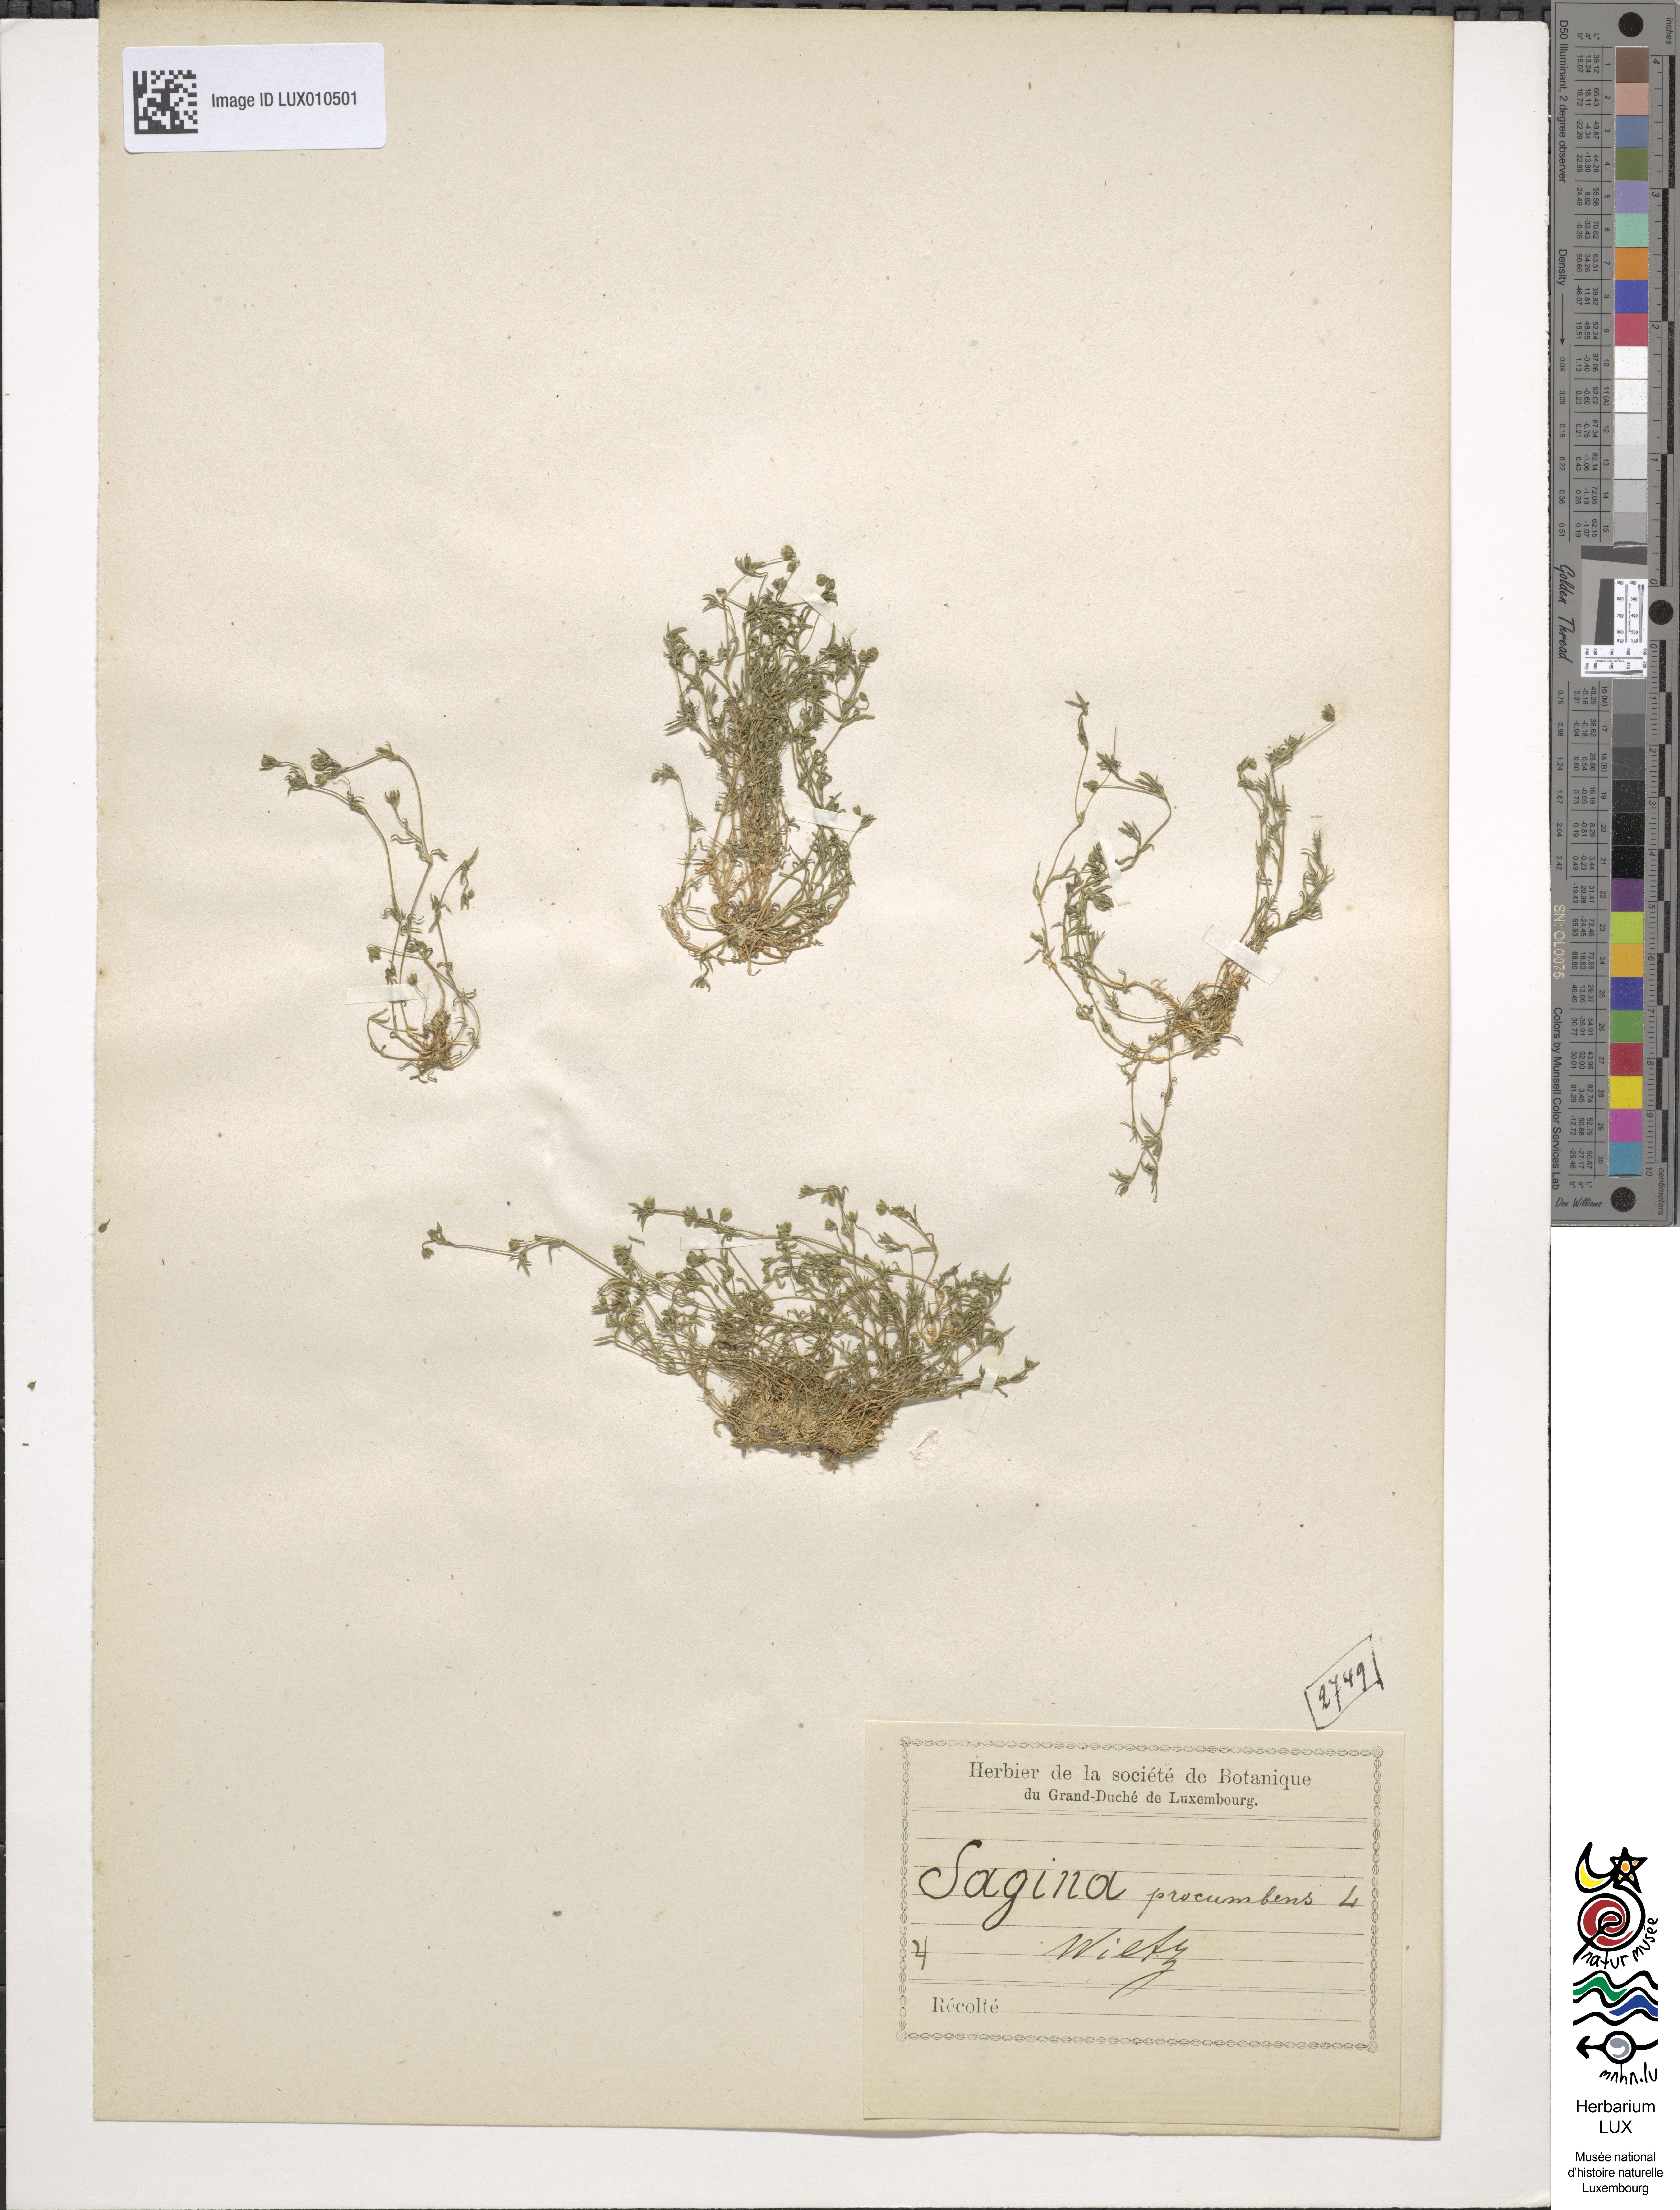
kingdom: Plantae
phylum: Tracheophyta
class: Magnoliopsida
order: Caryophyllales
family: Caryophyllaceae
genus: Sagina
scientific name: Sagina procumbens
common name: Procumbent pearlwort
